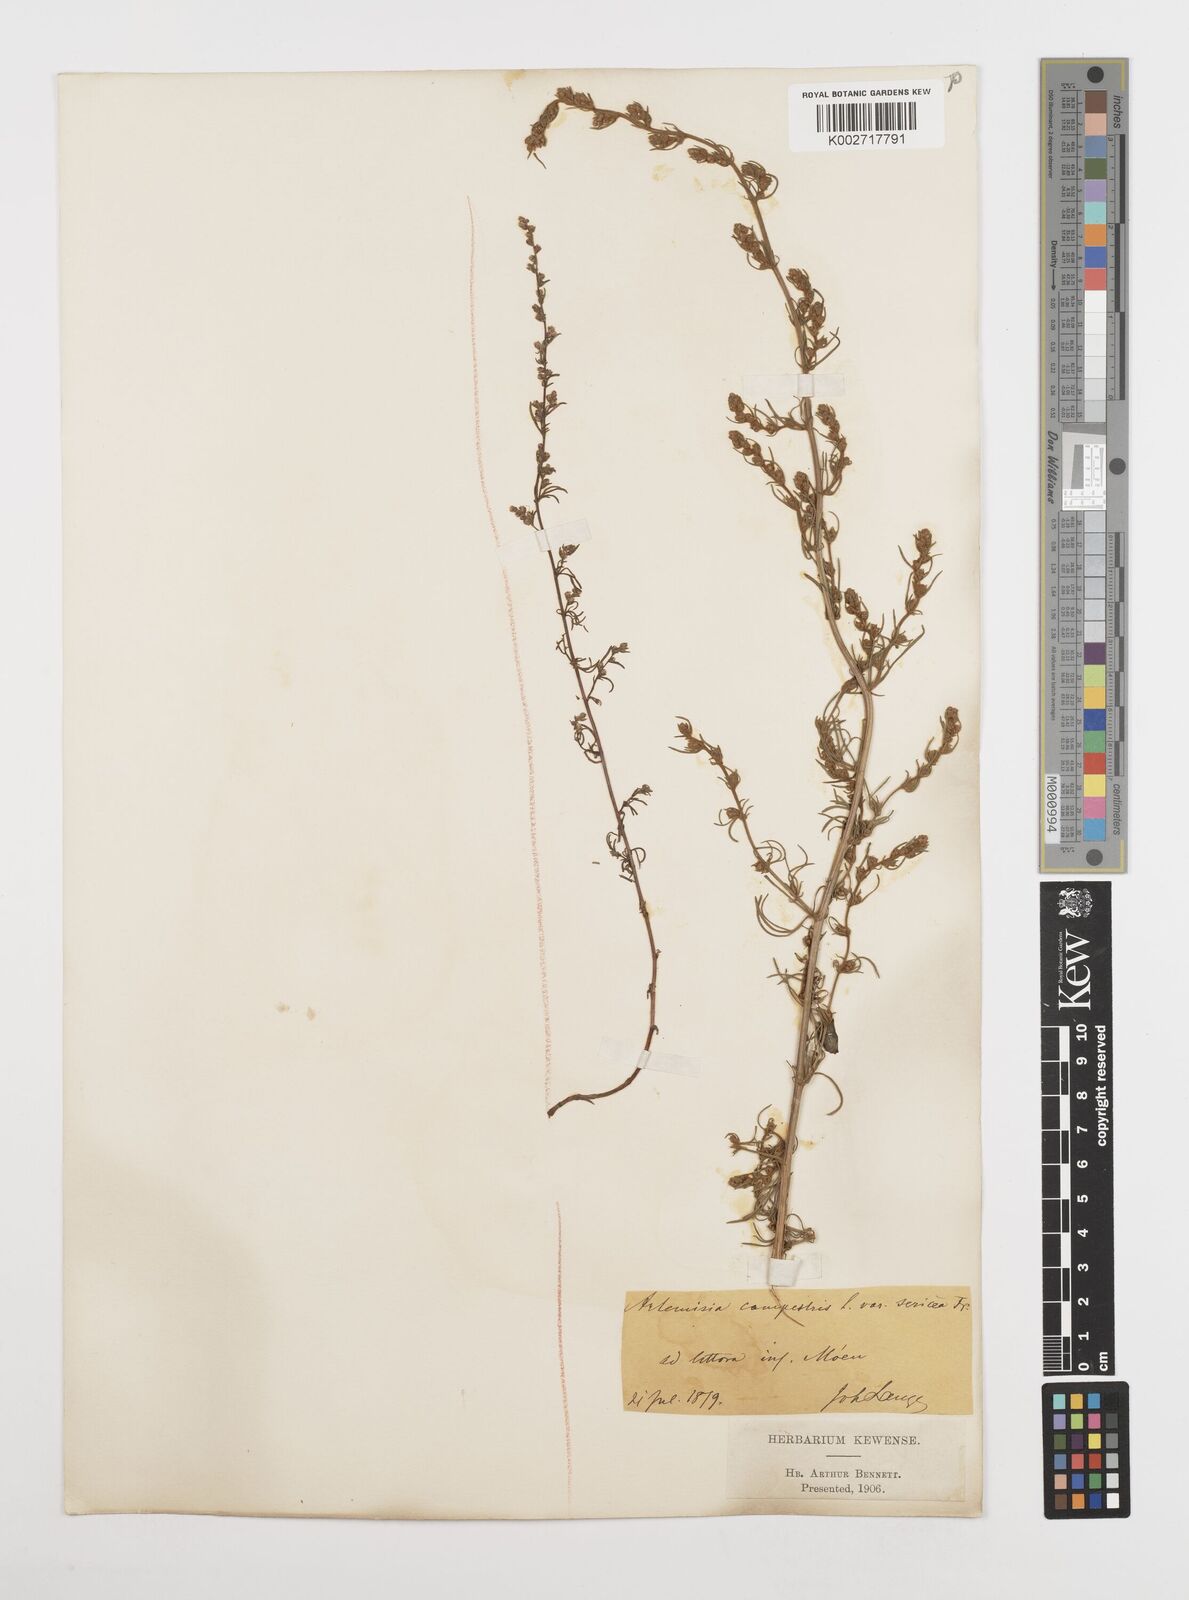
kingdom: Plantae
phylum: Tracheophyta
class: Magnoliopsida
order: Asterales
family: Asteraceae
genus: Artemisia
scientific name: Artemisia campestris
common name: Field wormwood
